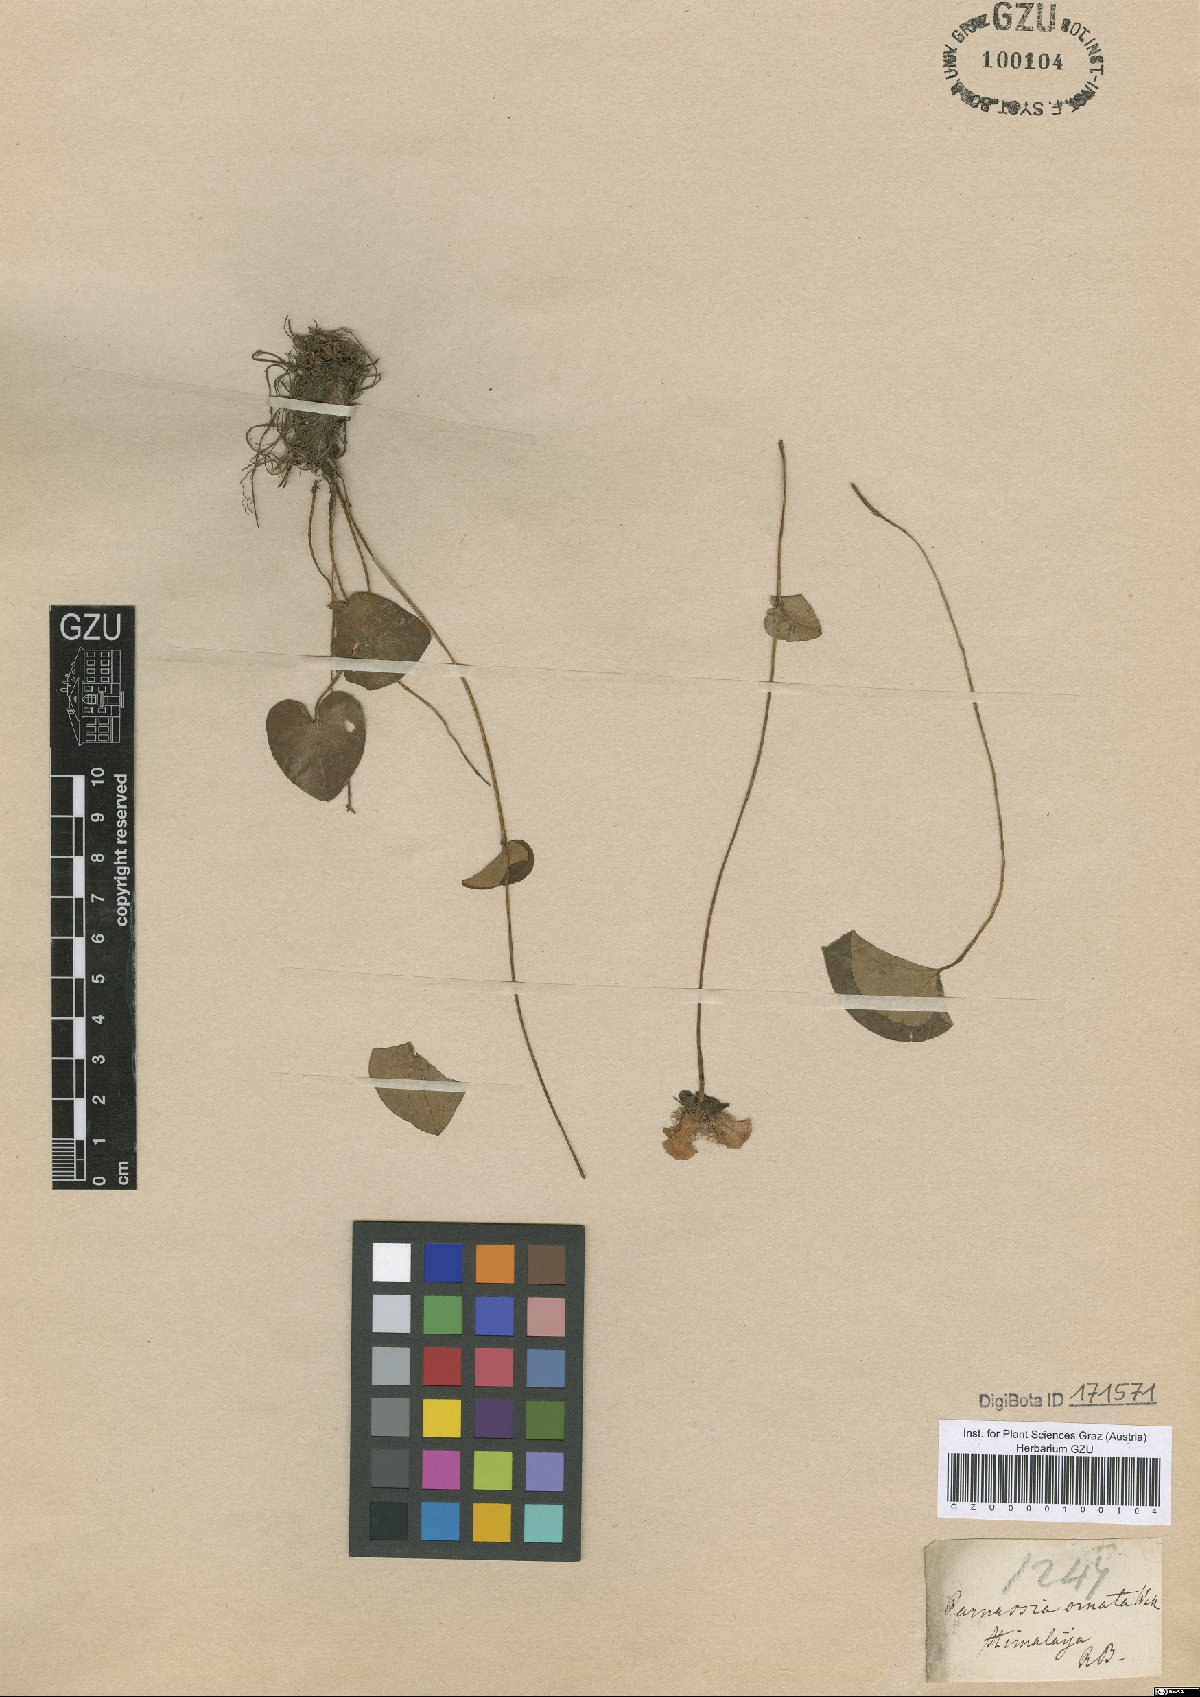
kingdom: Plantae
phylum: Tracheophyta
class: Magnoliopsida
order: Celastrales
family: Parnassiaceae
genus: Parnassia
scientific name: Parnassia wightiana
